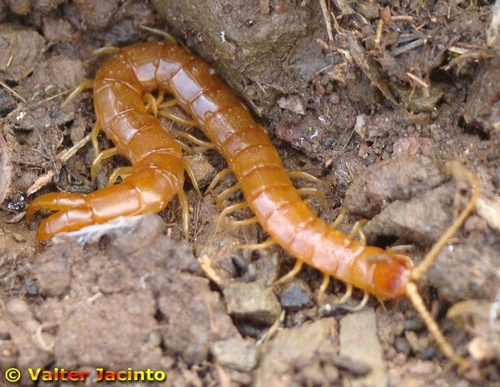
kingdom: Animalia
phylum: Arthropoda
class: Chilopoda
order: Scolopendromorpha
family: Cryptopidae
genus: Theatops
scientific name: Theatops erythrocephalus
